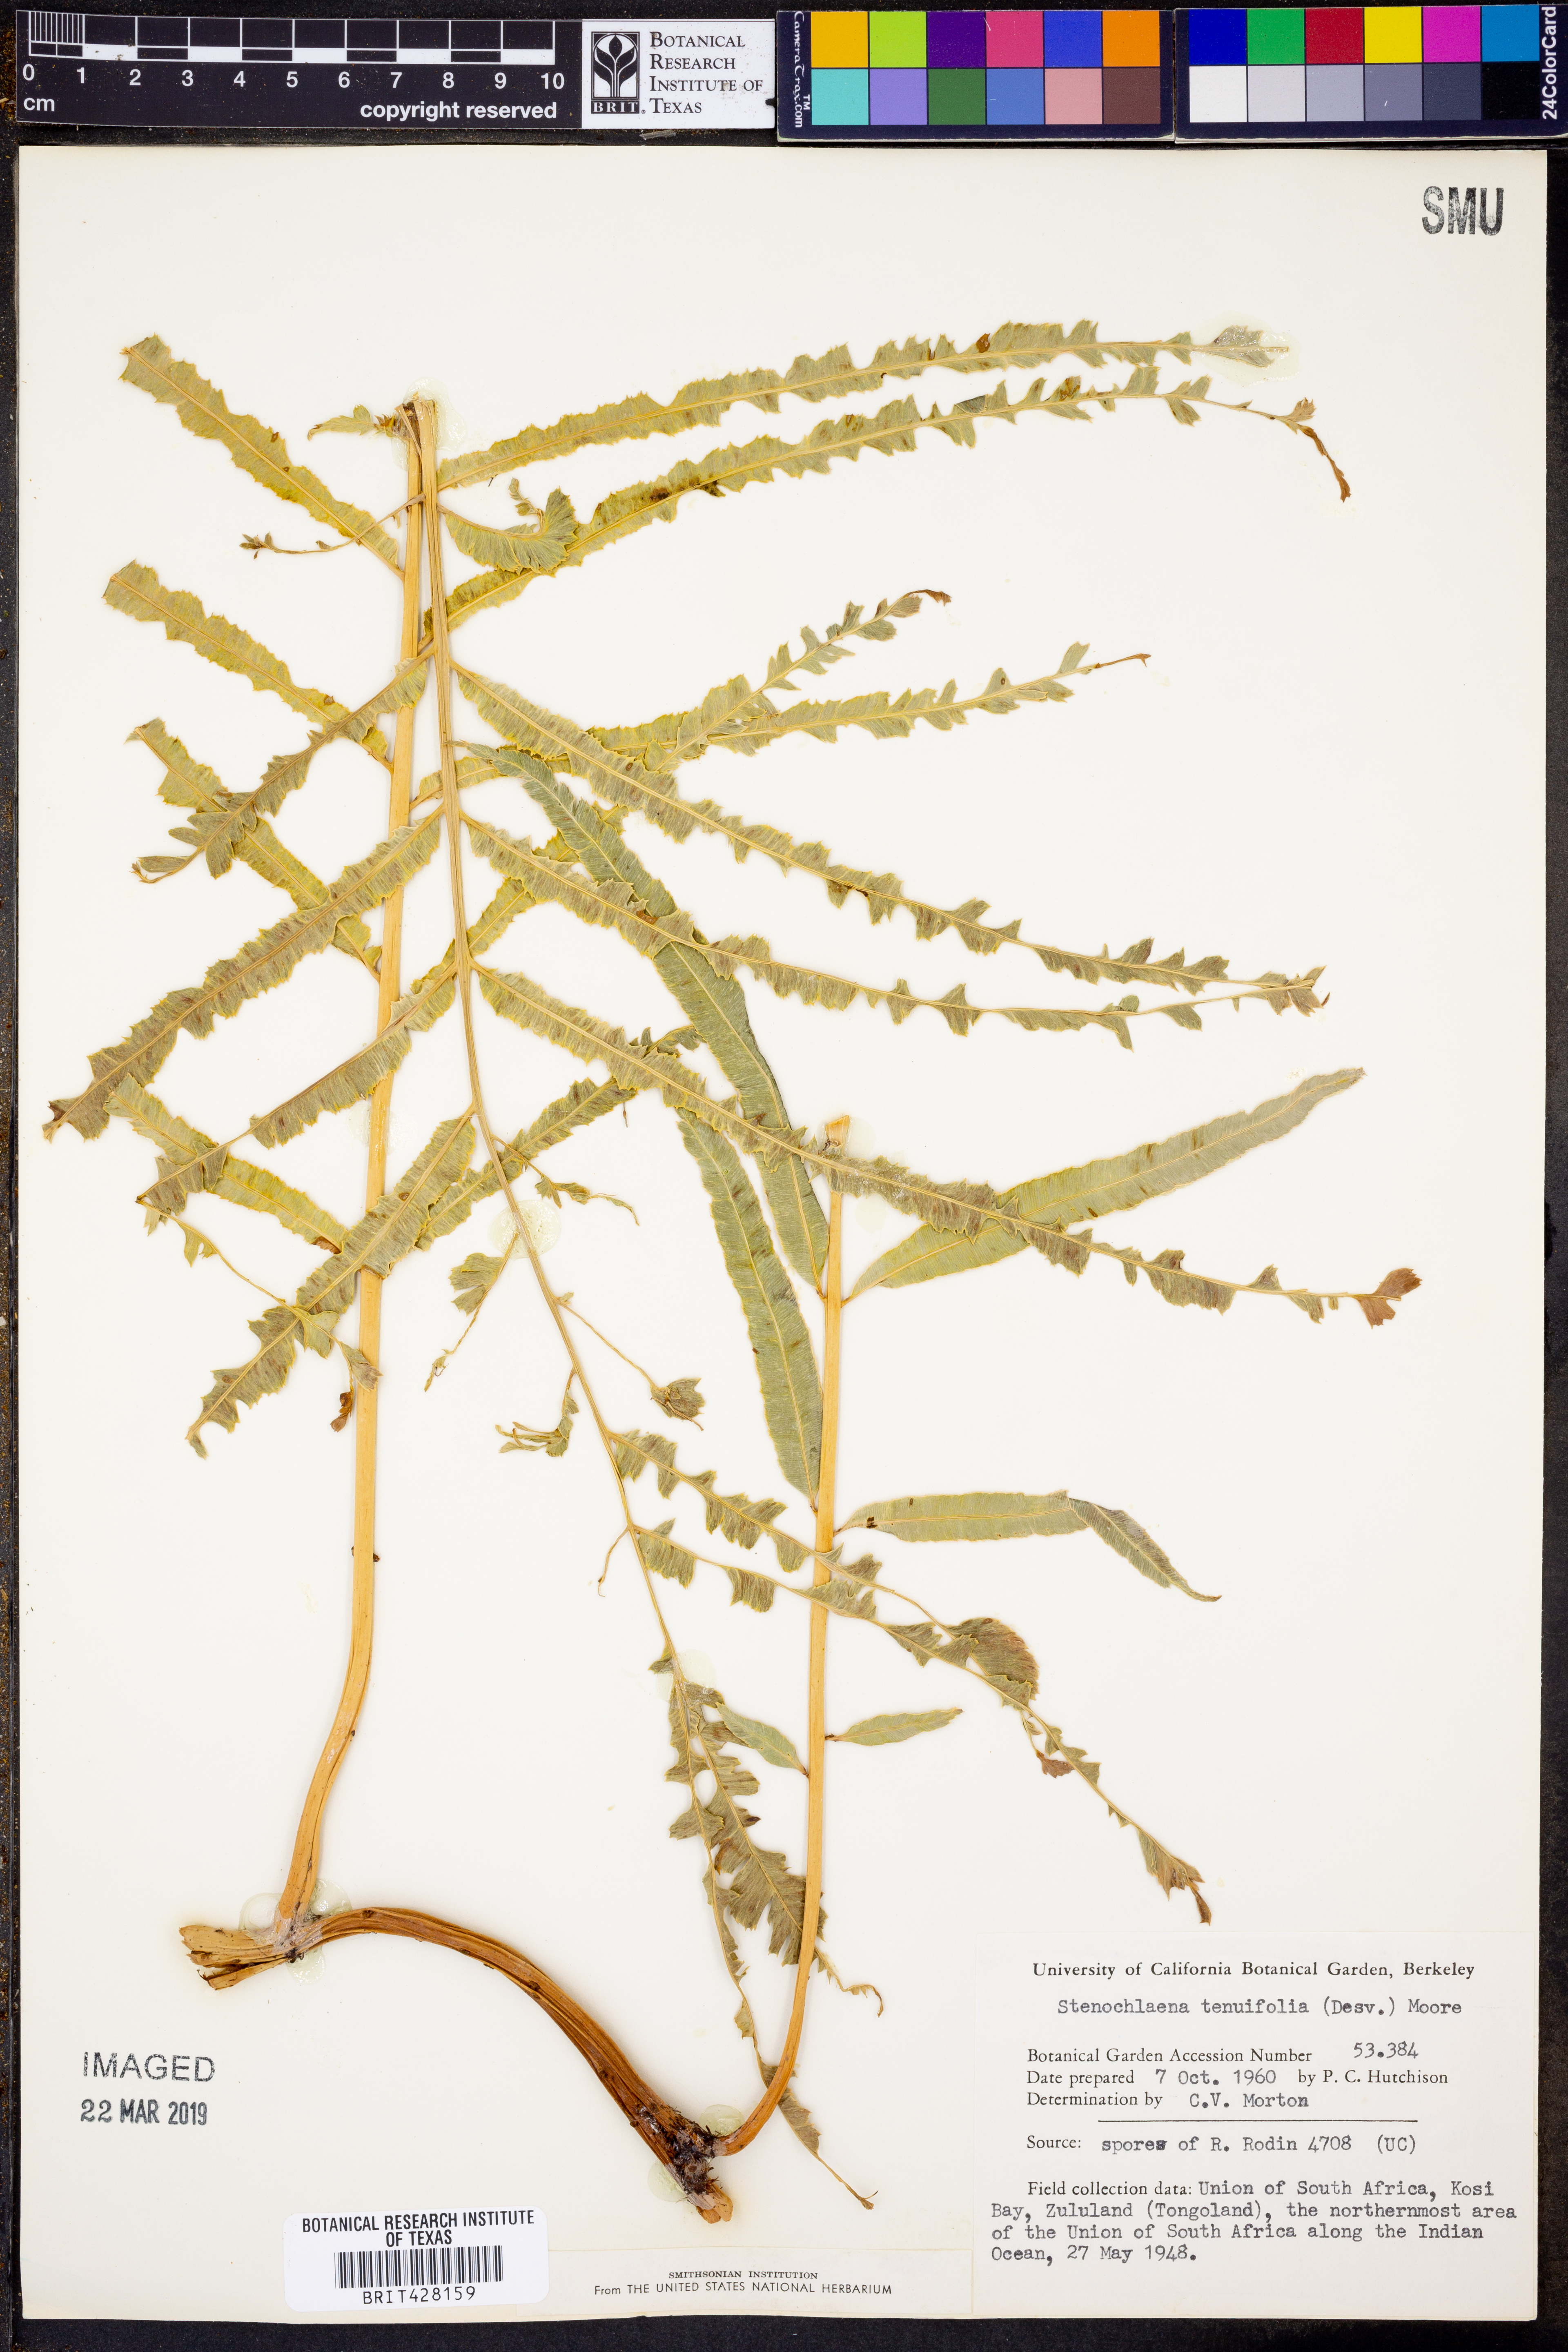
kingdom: Plantae
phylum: Tracheophyta
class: Polypodiopsida
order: Polypodiales
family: Blechnaceae
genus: Stenochlaena
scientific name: Stenochlaena tenuifolia
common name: Giant vine fern
